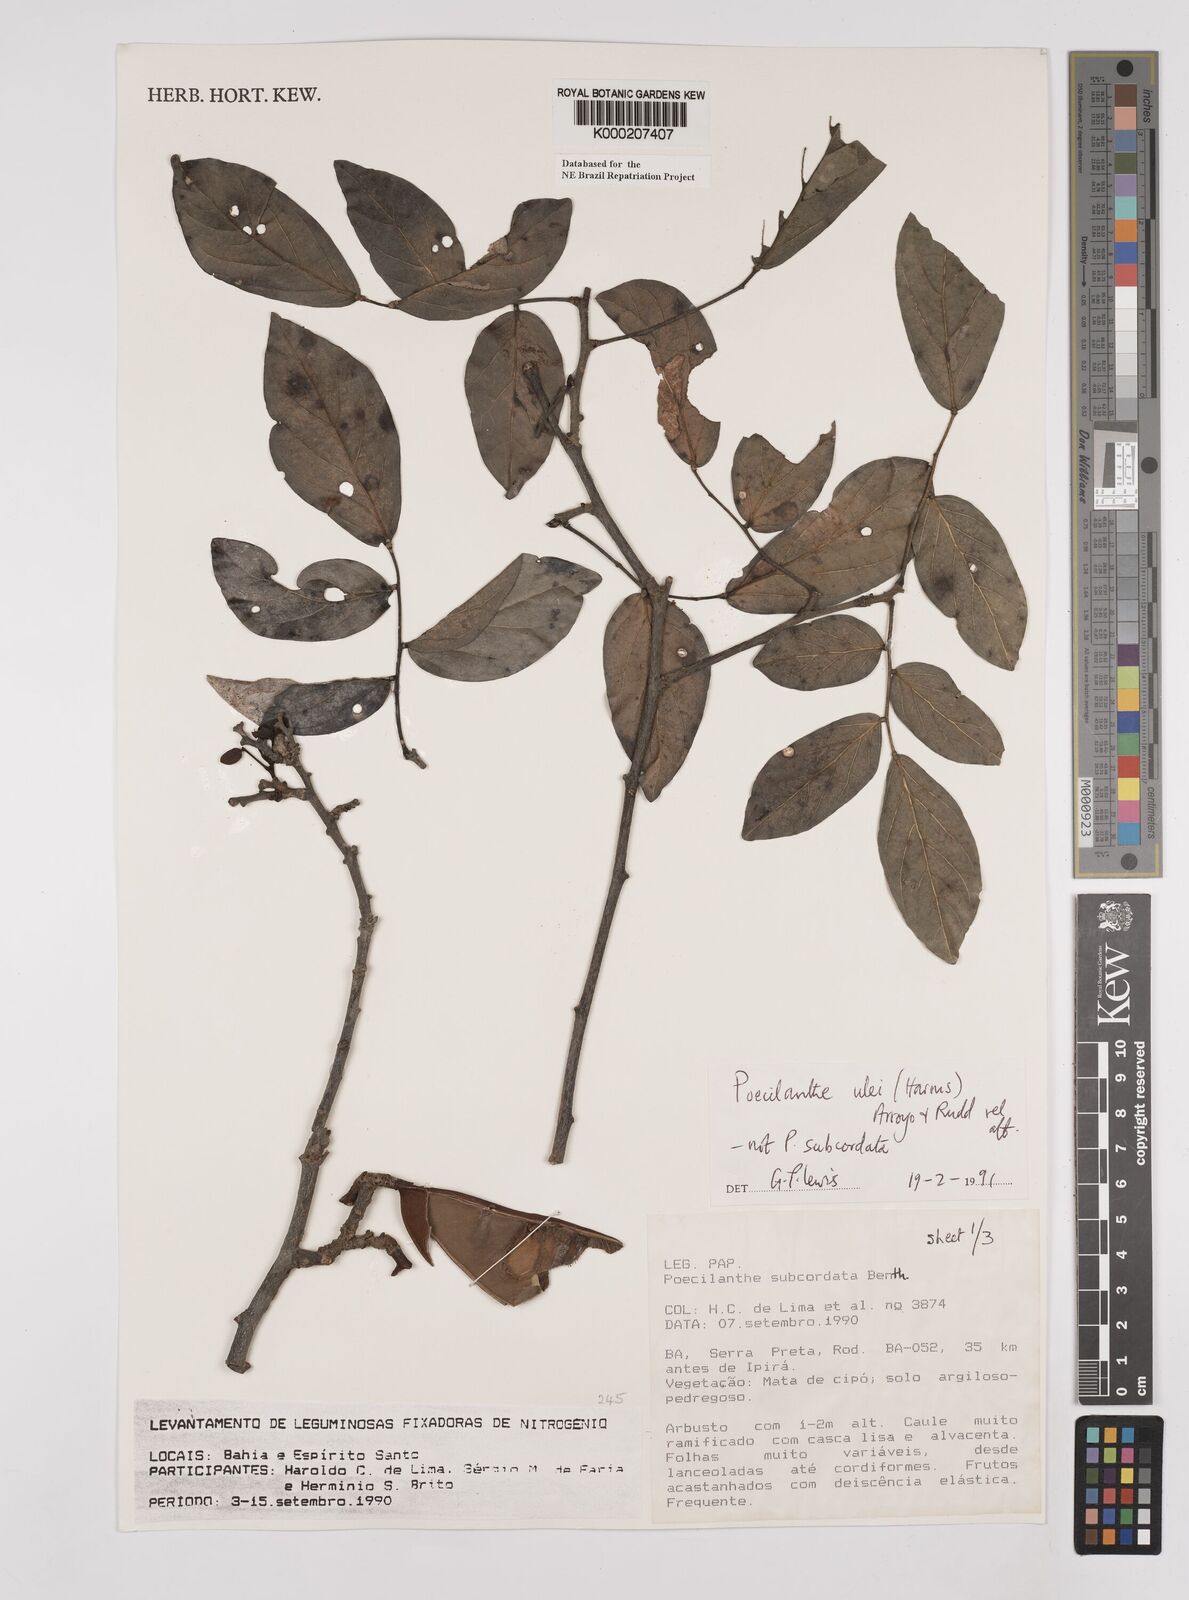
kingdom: Plantae
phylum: Tracheophyta
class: Magnoliopsida
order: Fabales
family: Fabaceae
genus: Poecilanthe
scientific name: Poecilanthe ulei
